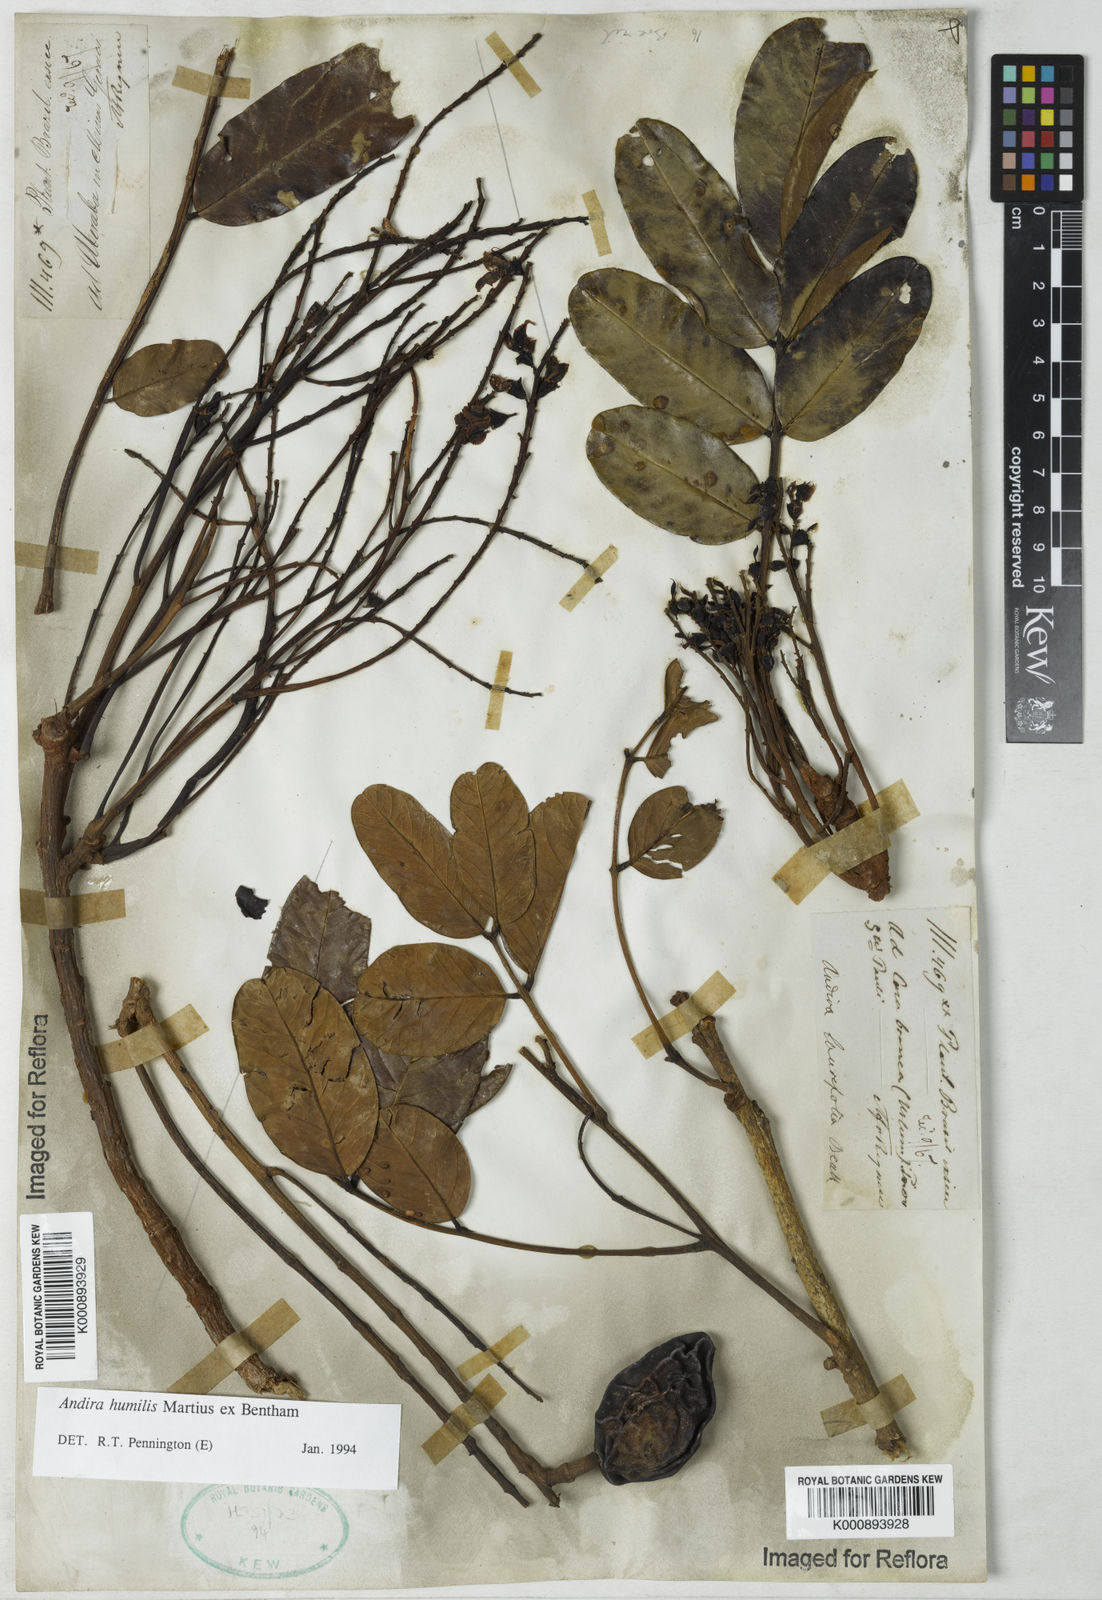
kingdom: Plantae
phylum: Tracheophyta
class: Magnoliopsida
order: Fabales
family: Fabaceae
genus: Andira
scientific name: Andira humilis
